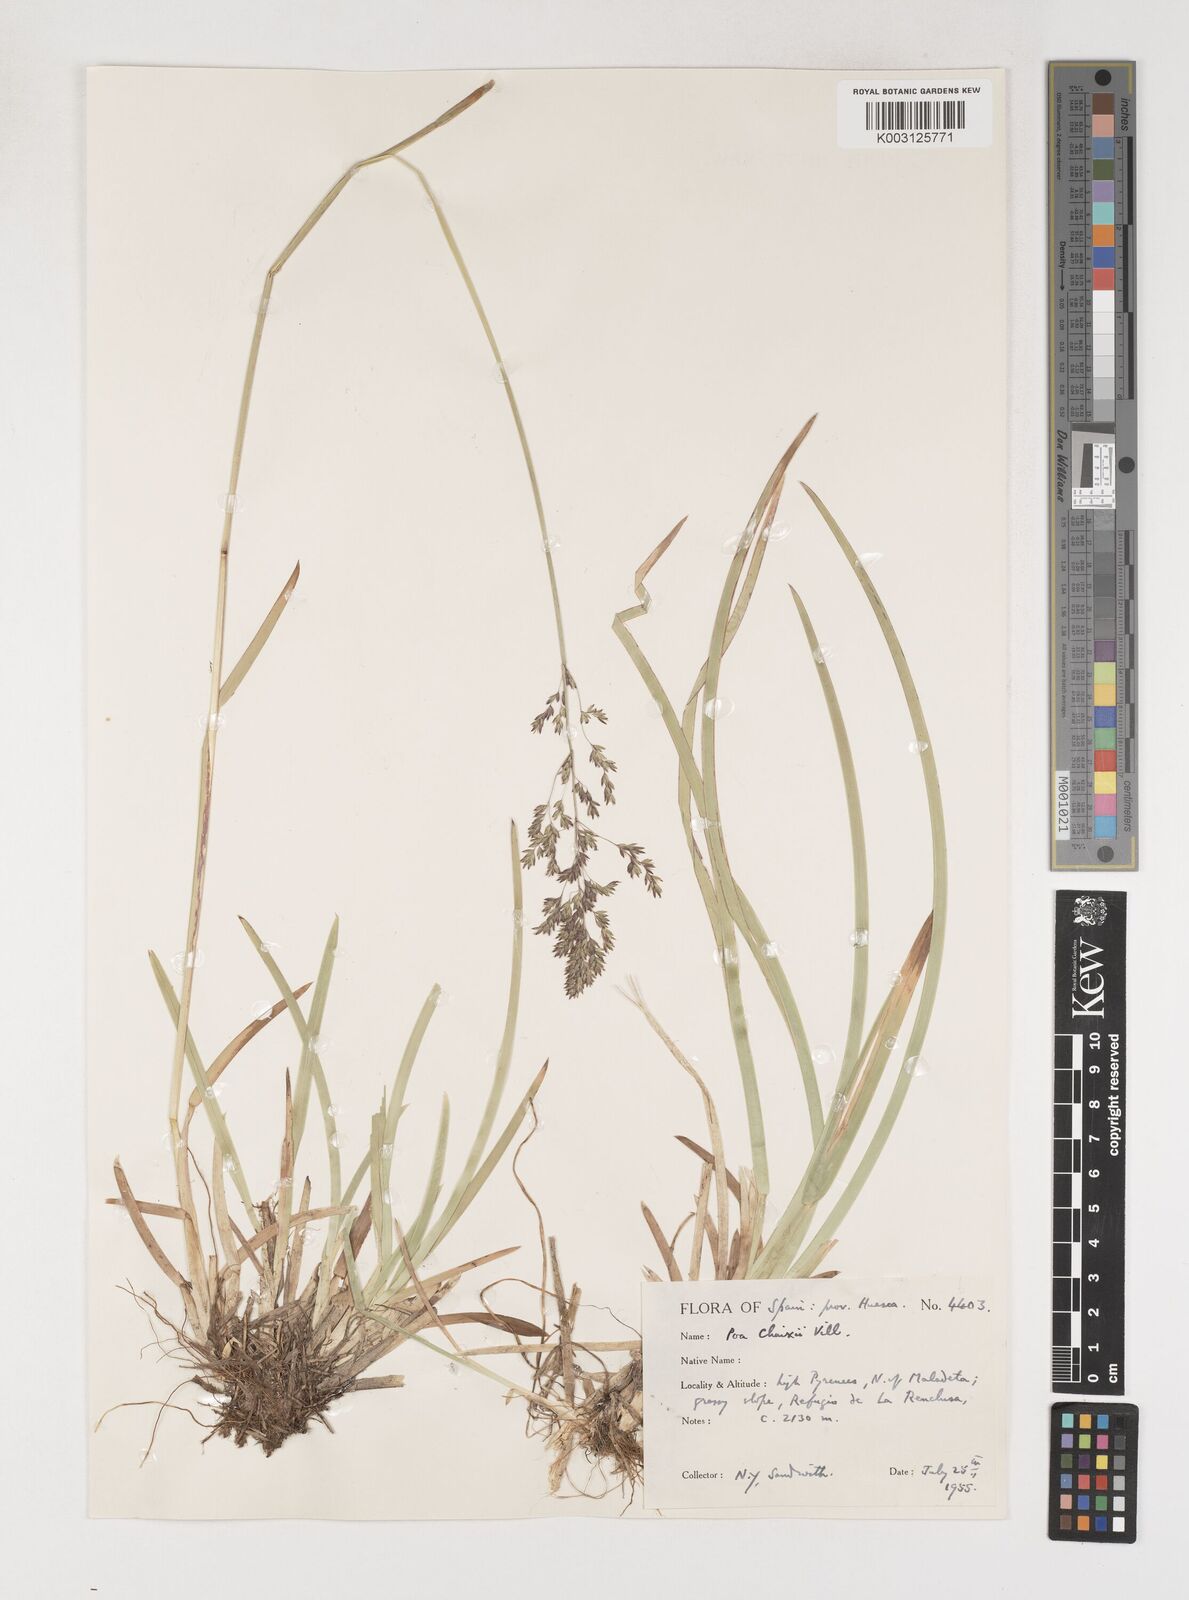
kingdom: Plantae
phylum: Tracheophyta
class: Liliopsida
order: Poales
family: Poaceae
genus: Poa
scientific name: Poa chaixii
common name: Broad-leaved meadow-grass
